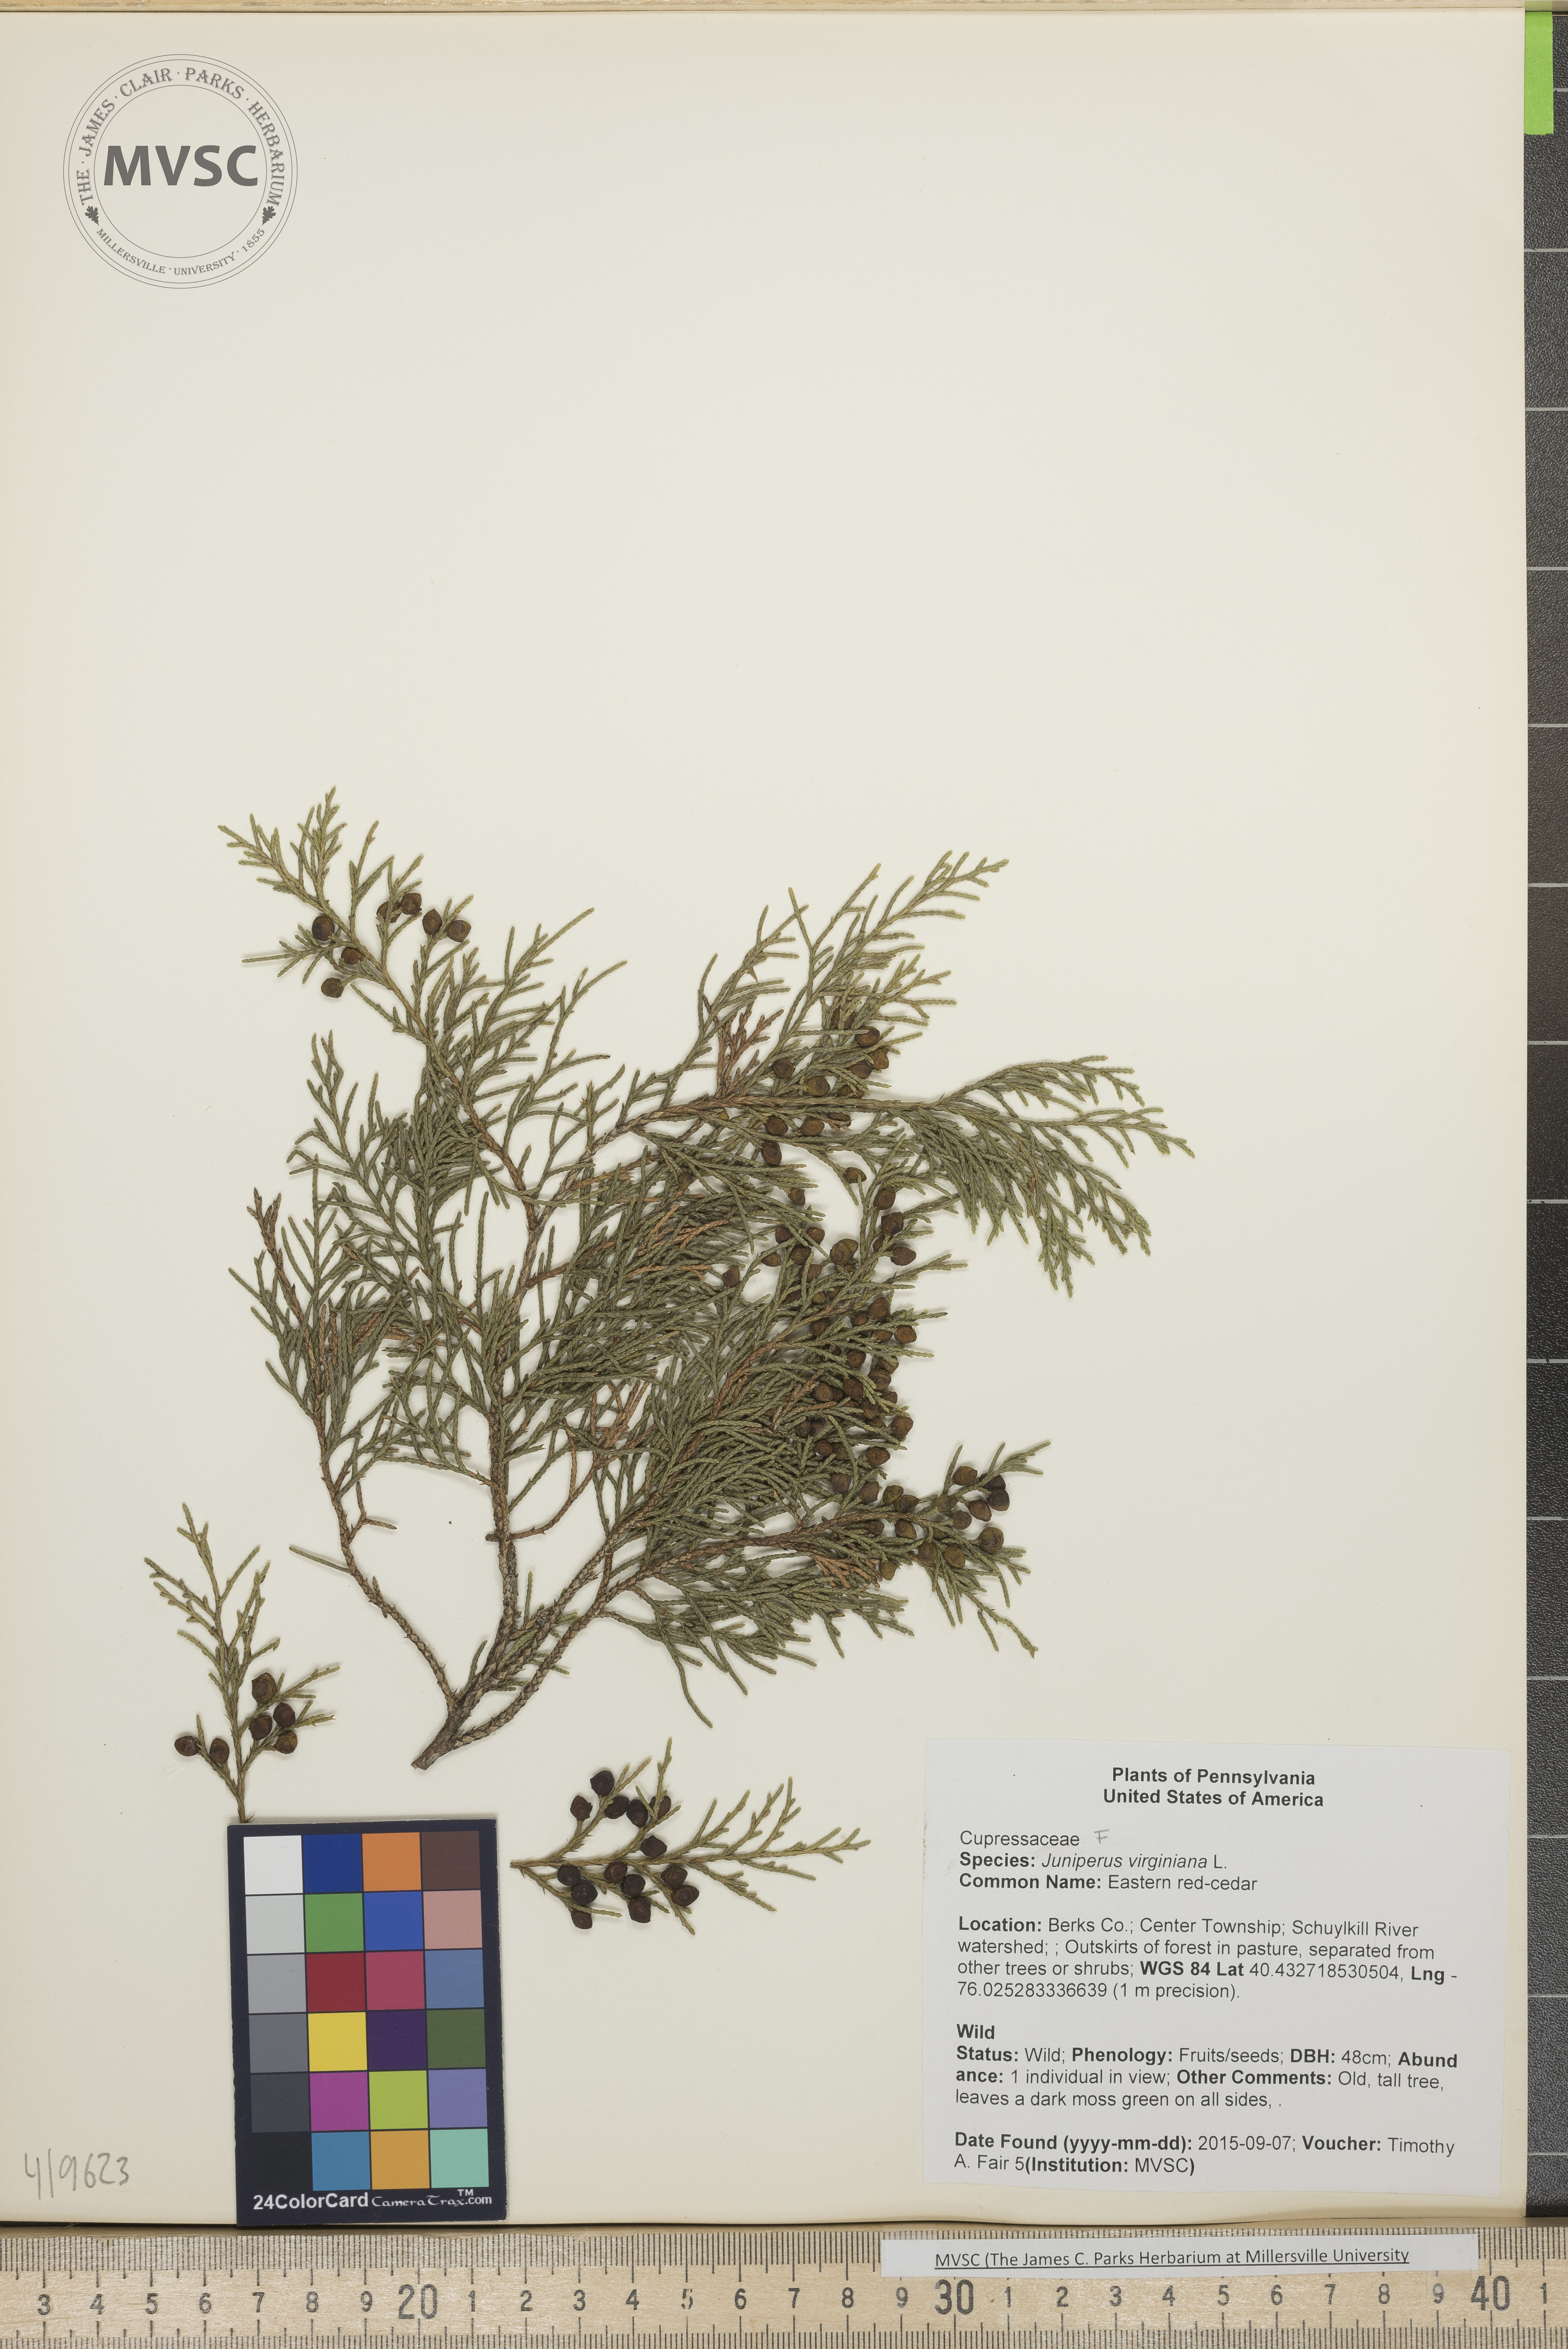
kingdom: Plantae
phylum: Tracheophyta
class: Pinopsida
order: Pinales
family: Cupressaceae
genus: Juniperus
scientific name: Juniperus virginiana
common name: Eastern red-cedar
